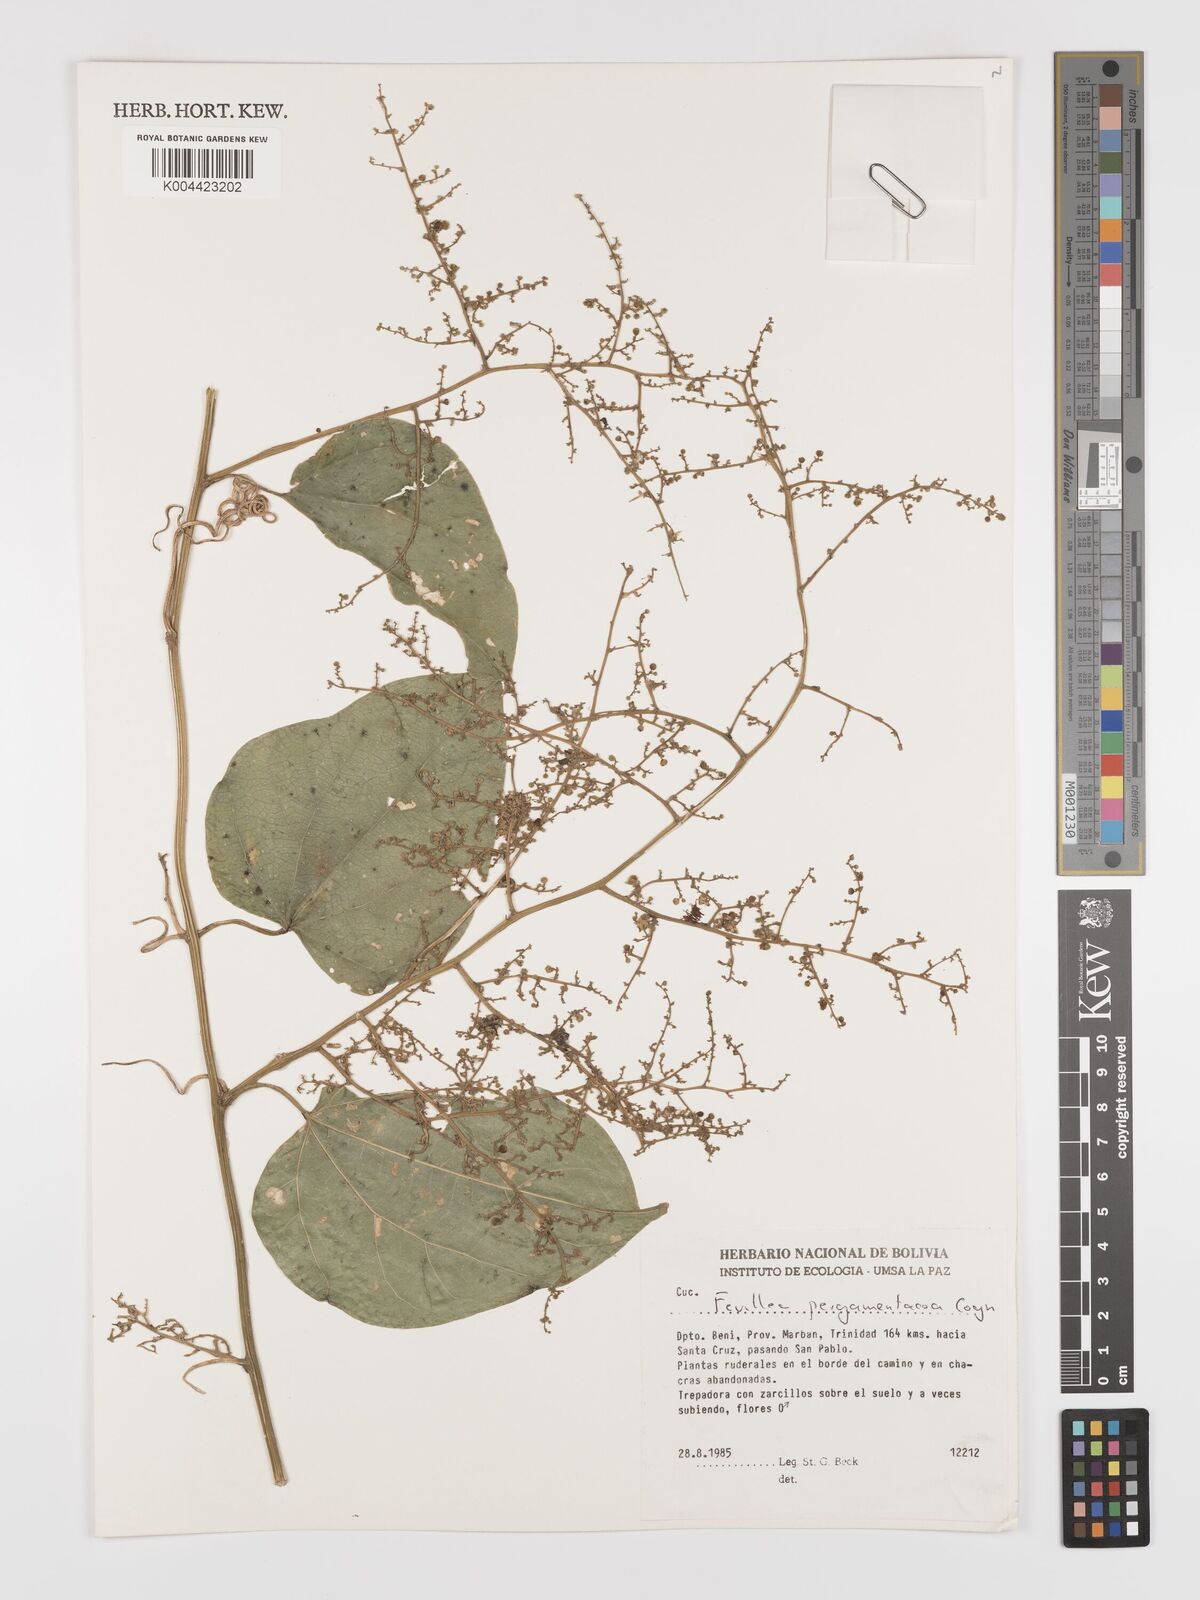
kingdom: Plantae
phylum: Tracheophyta
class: Magnoliopsida
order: Cucurbitales
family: Cucurbitaceae
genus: Fevillea
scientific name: Fevillea pergamentacea
